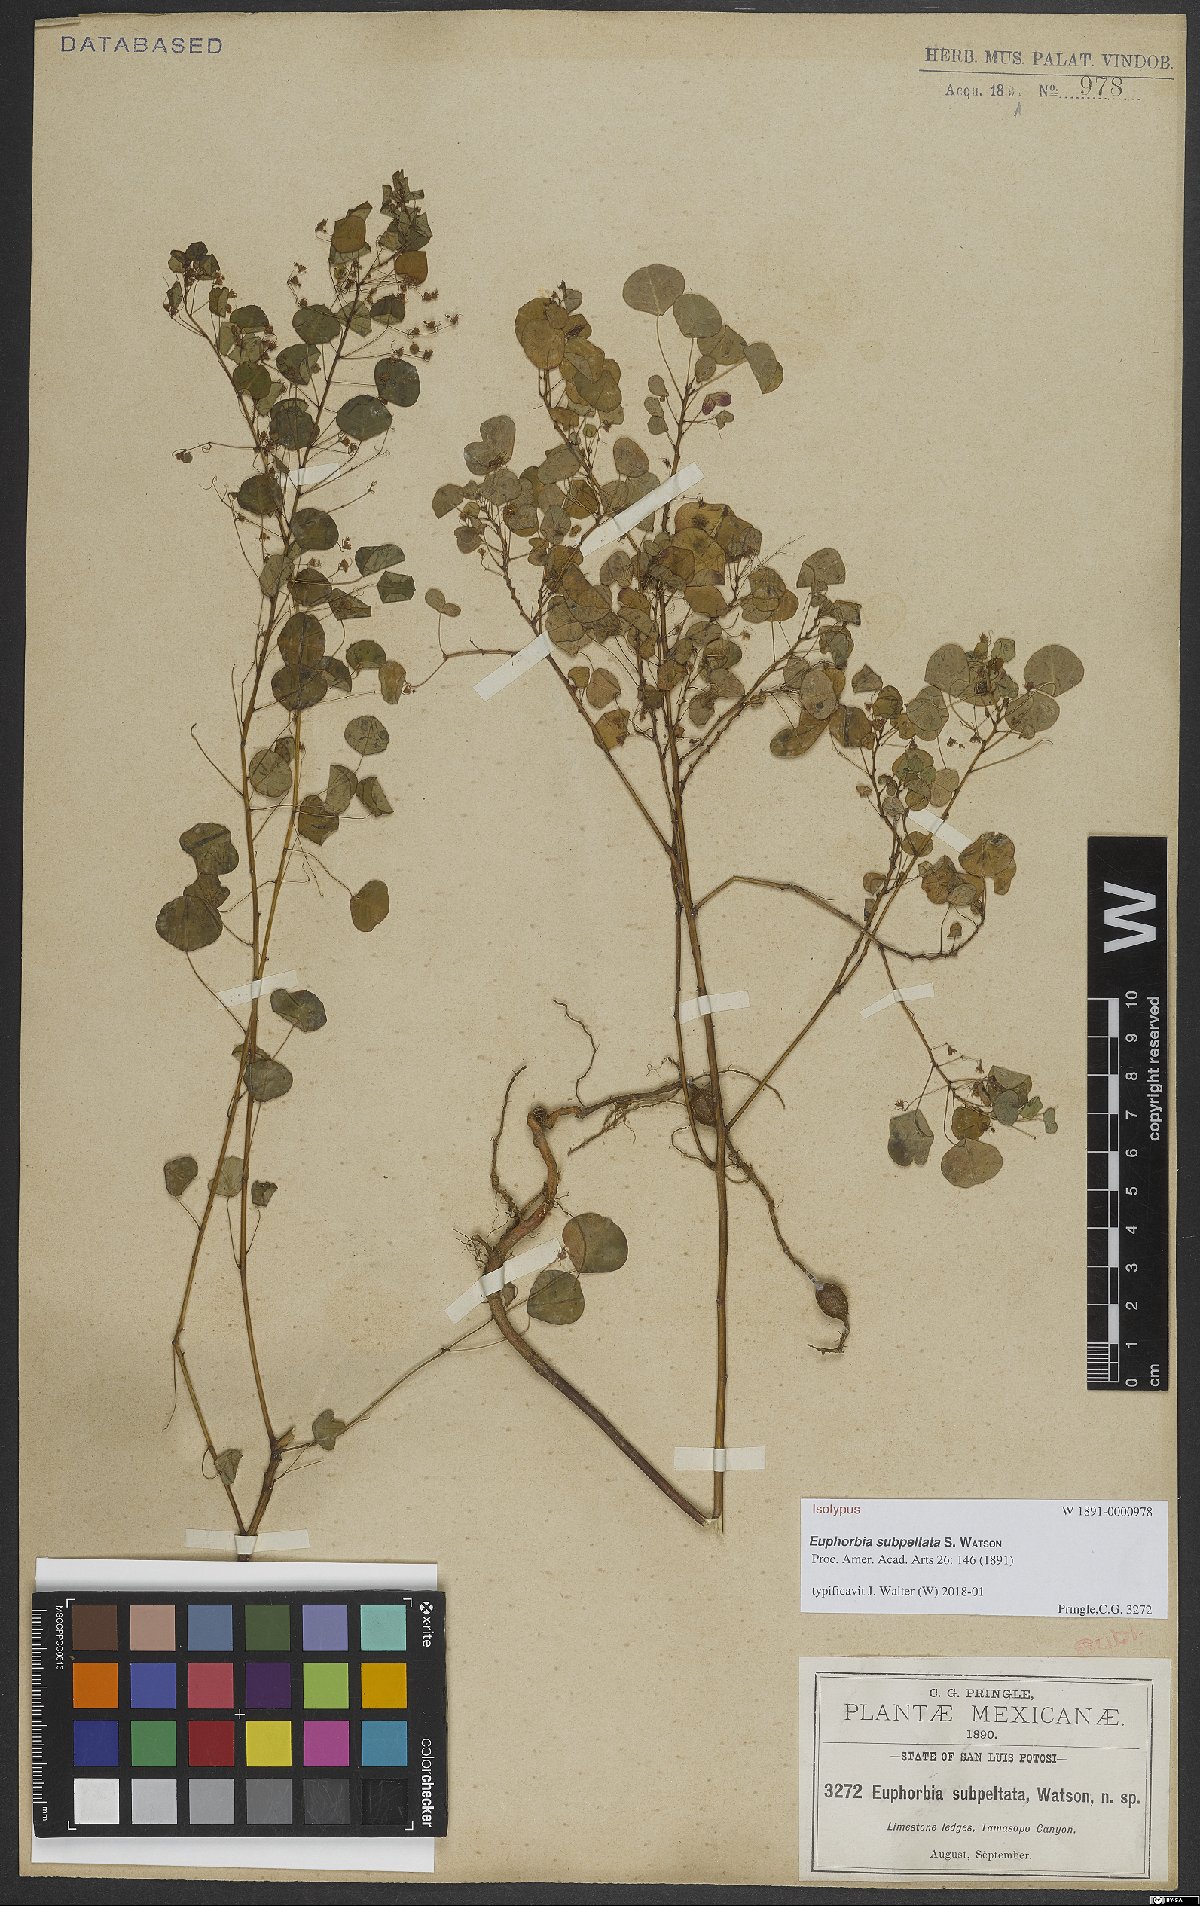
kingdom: Plantae
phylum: Tracheophyta
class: Magnoliopsida
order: Malpighiales
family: Euphorbiaceae
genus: Euphorbia
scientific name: Euphorbia subpeltata
